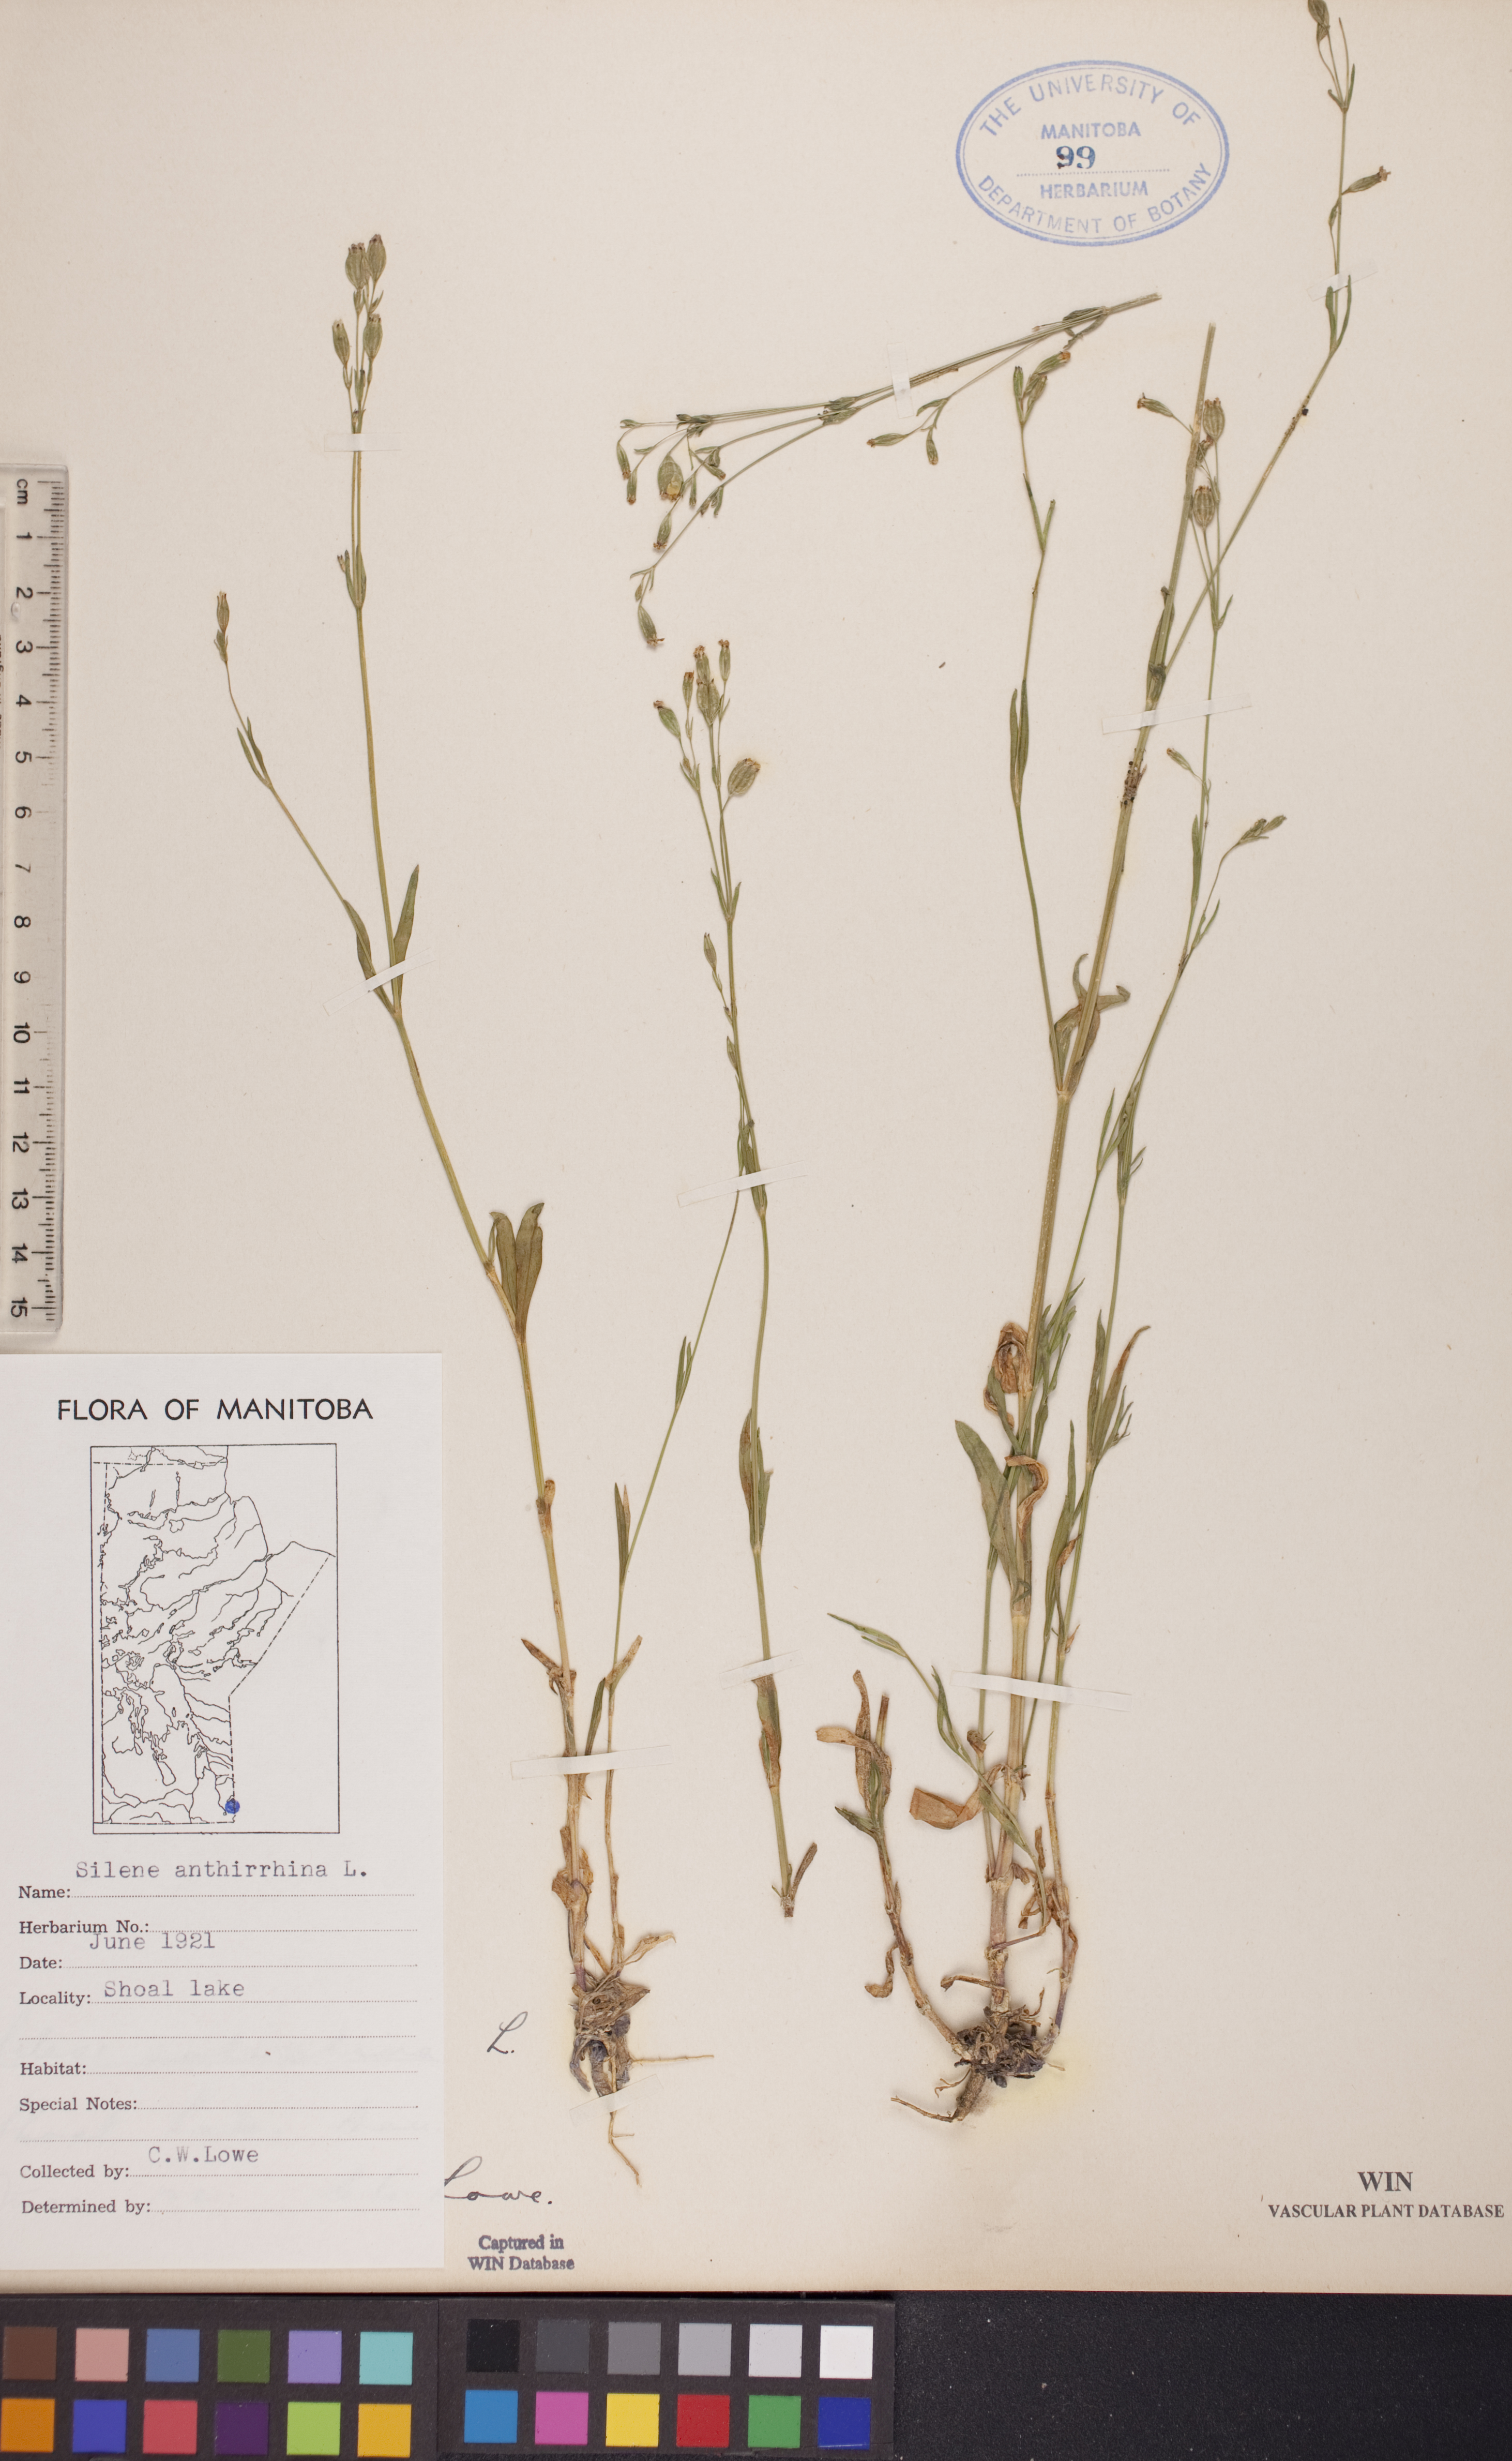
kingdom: Plantae
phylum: Tracheophyta
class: Magnoliopsida
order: Caryophyllales
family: Caryophyllaceae
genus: Silene
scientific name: Silene antirrhina
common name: Sleepy catchfly
